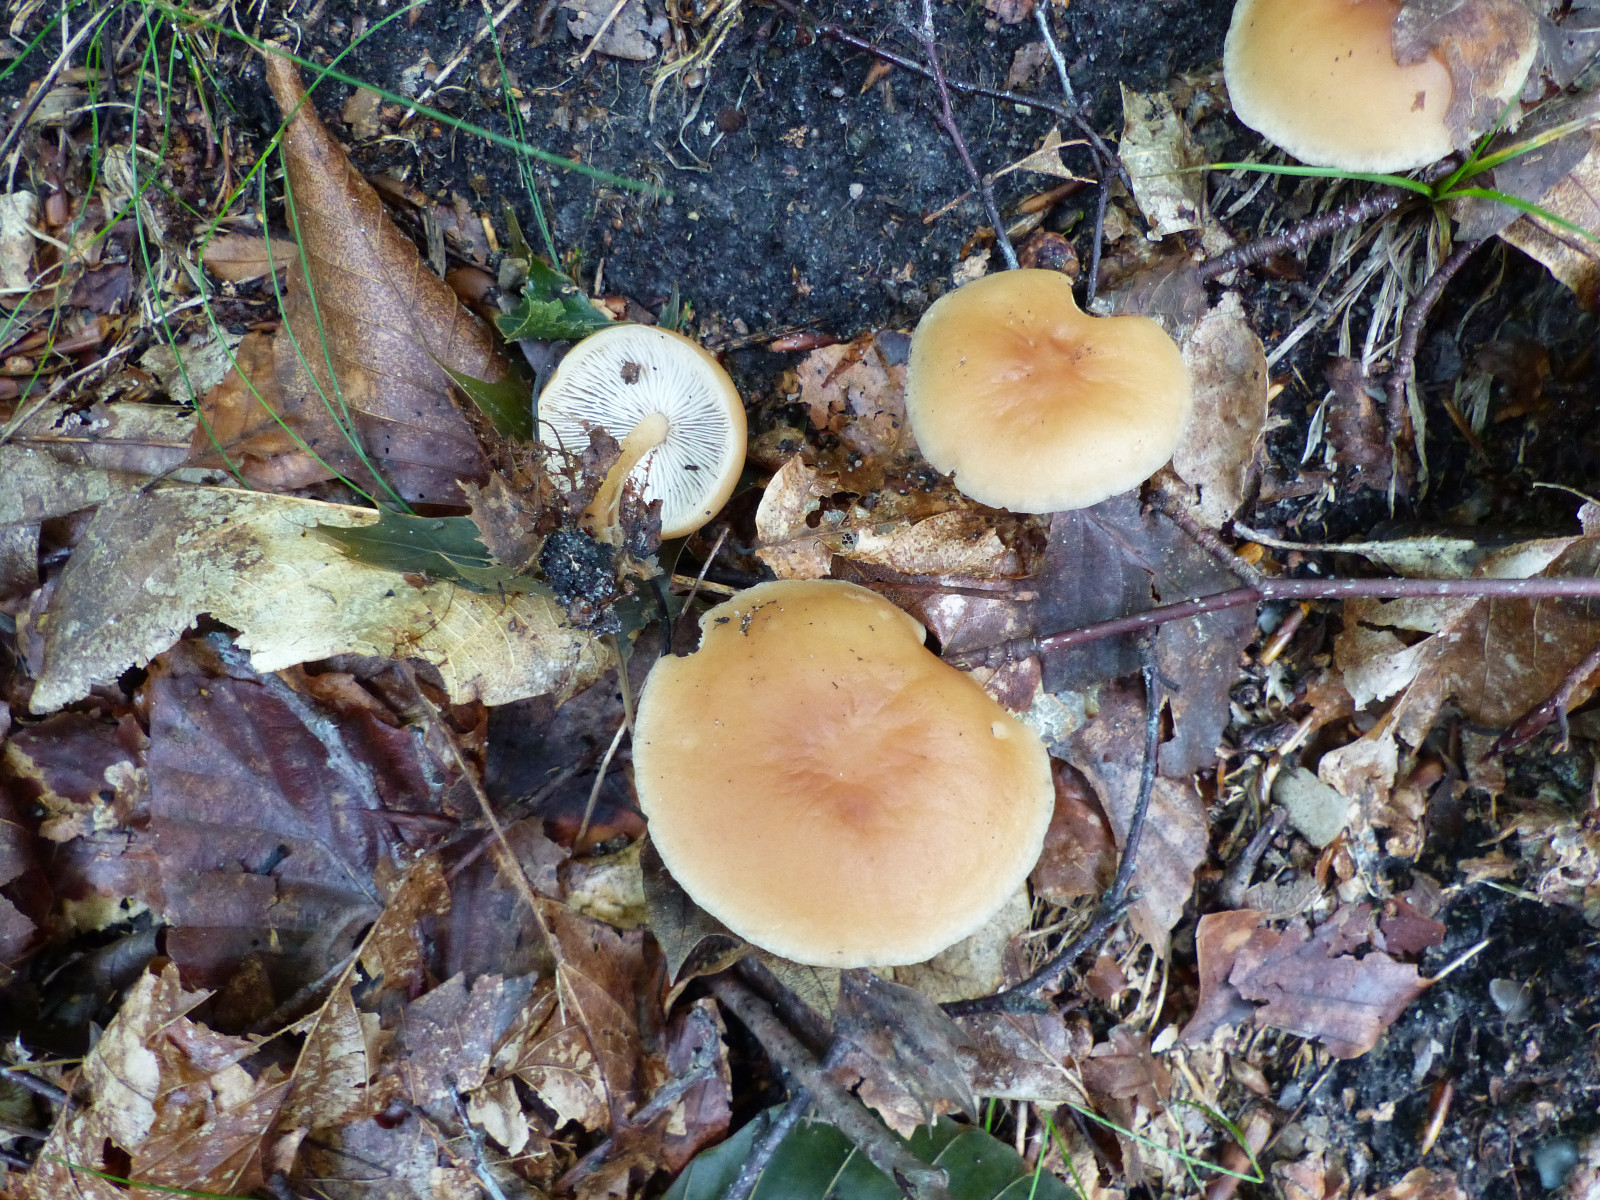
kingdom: Fungi
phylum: Basidiomycota
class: Agaricomycetes
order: Agaricales
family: Omphalotaceae
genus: Gymnopus
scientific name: Gymnopus
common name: fladhat
